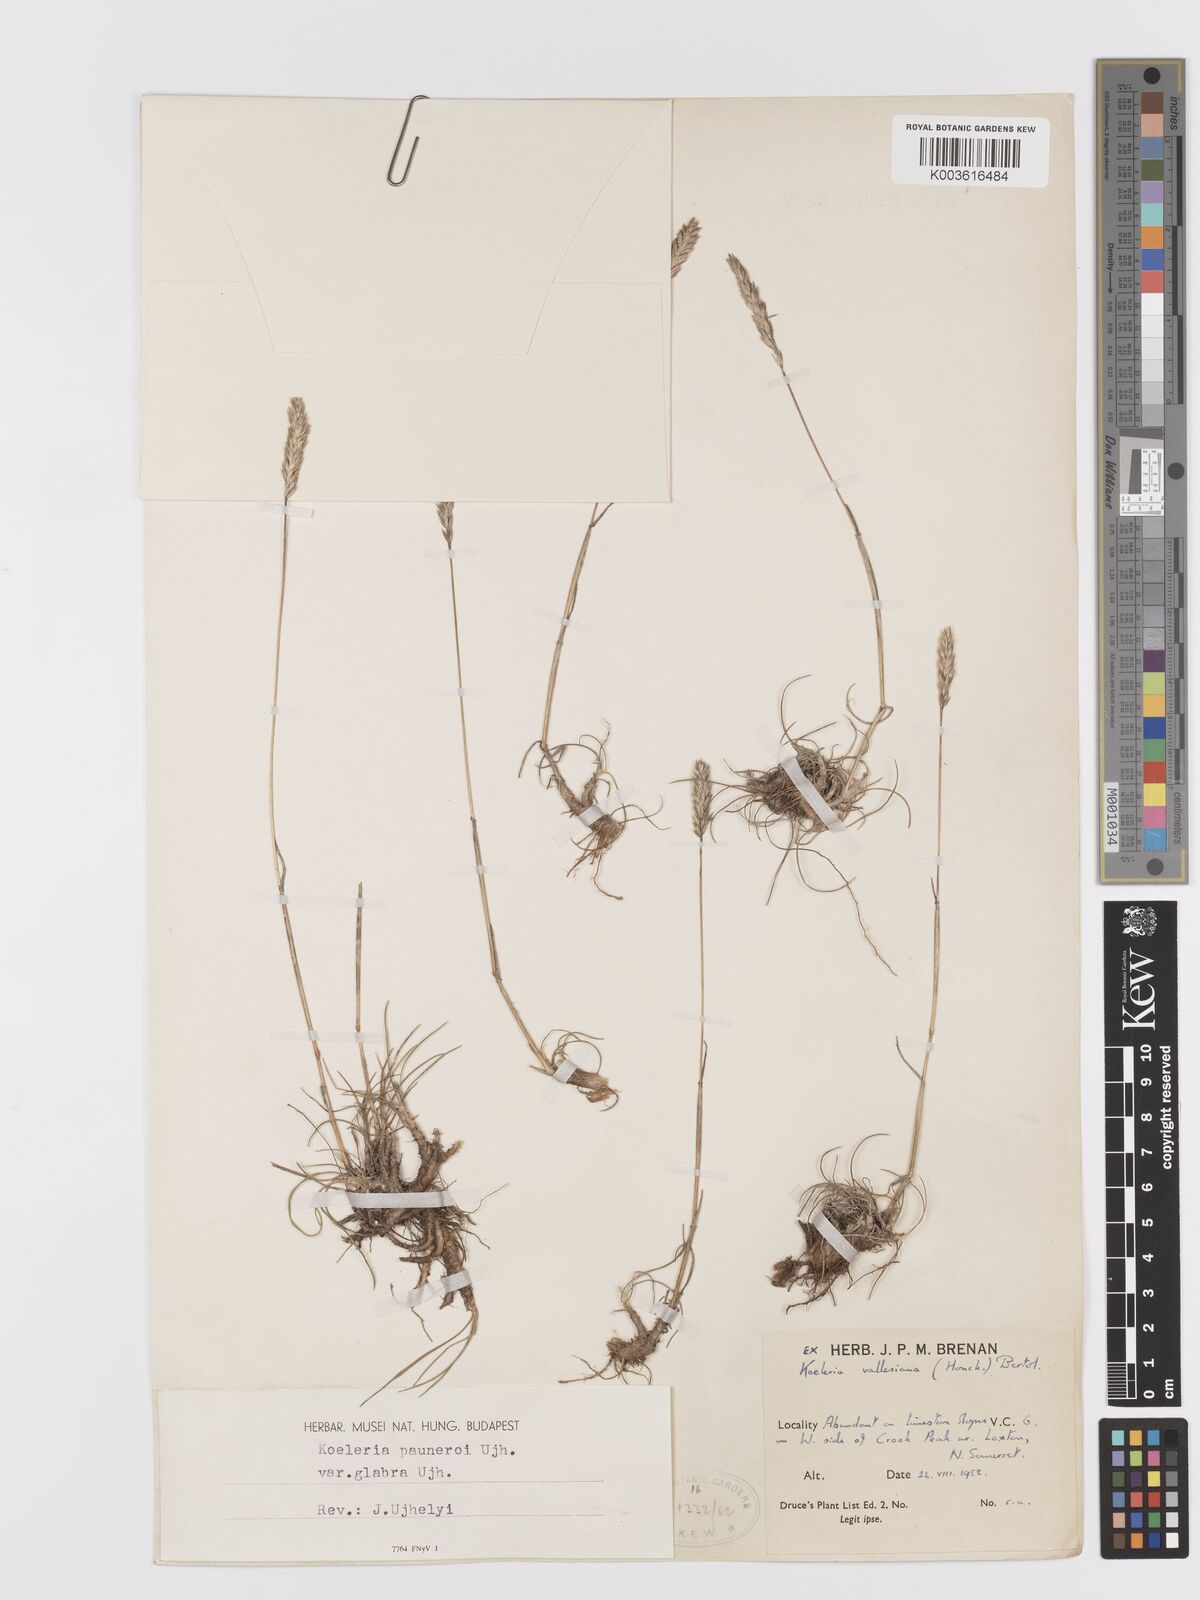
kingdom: Plantae
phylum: Tracheophyta
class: Liliopsida
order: Poales
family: Poaceae
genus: Koeleria
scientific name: Koeleria vallesiana
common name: Somerset hair-grass
